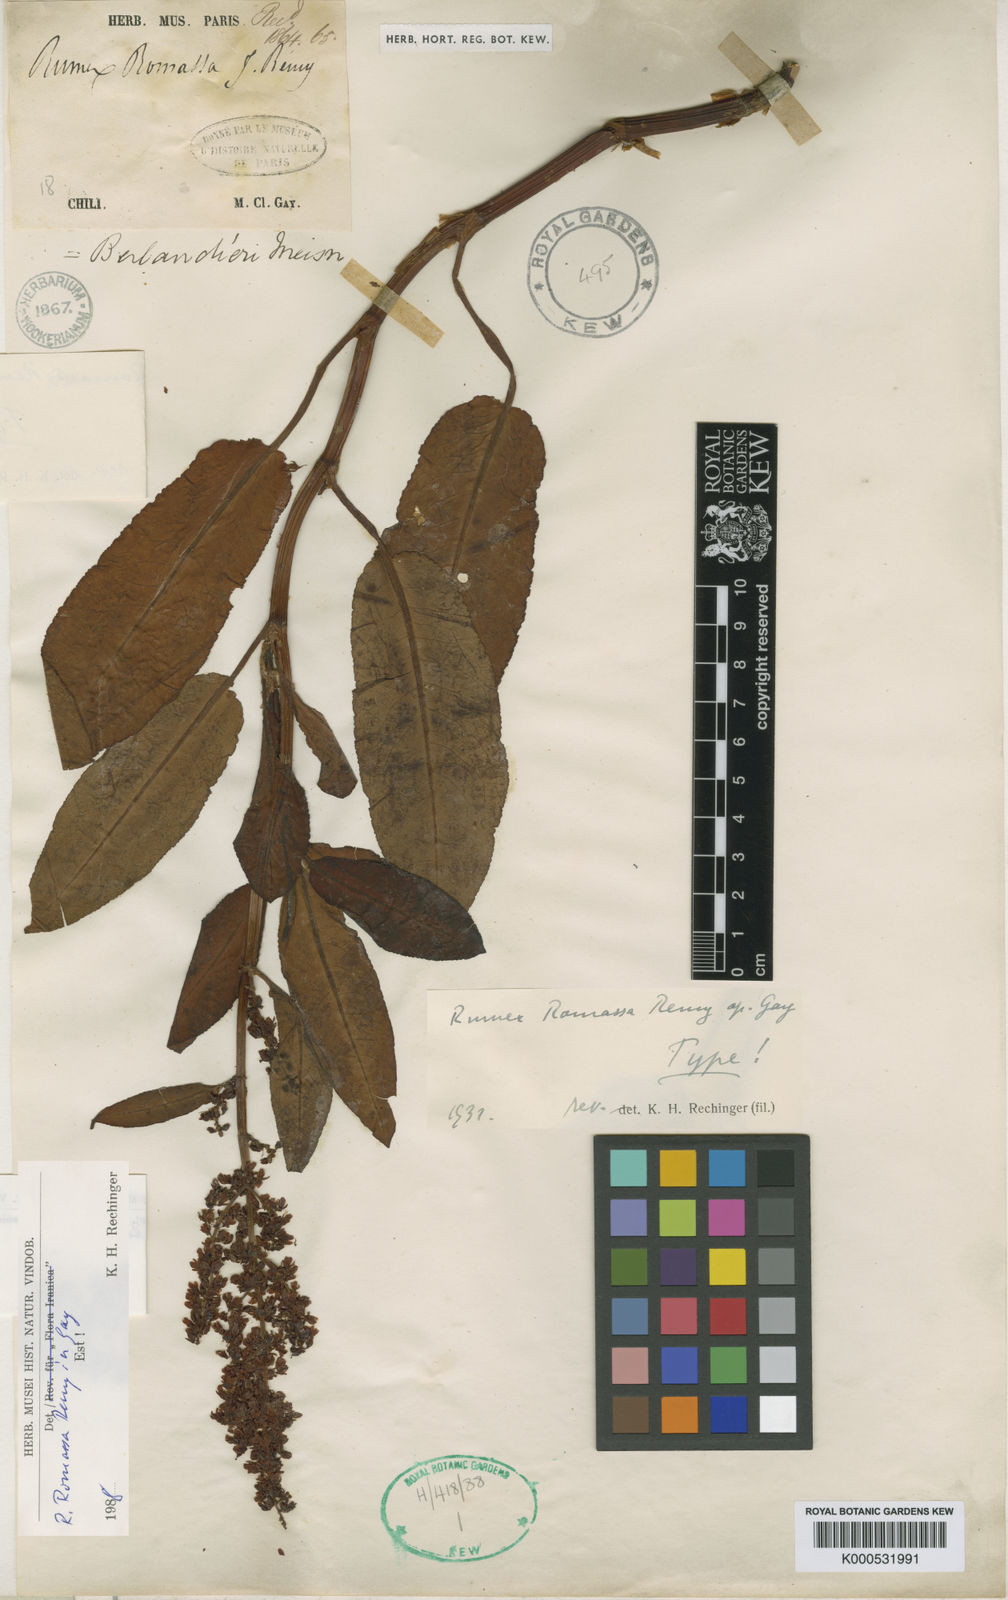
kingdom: Plantae
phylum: Tracheophyta
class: Magnoliopsida
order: Caryophyllales
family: Polygonaceae
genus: Rumex
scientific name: Rumex
